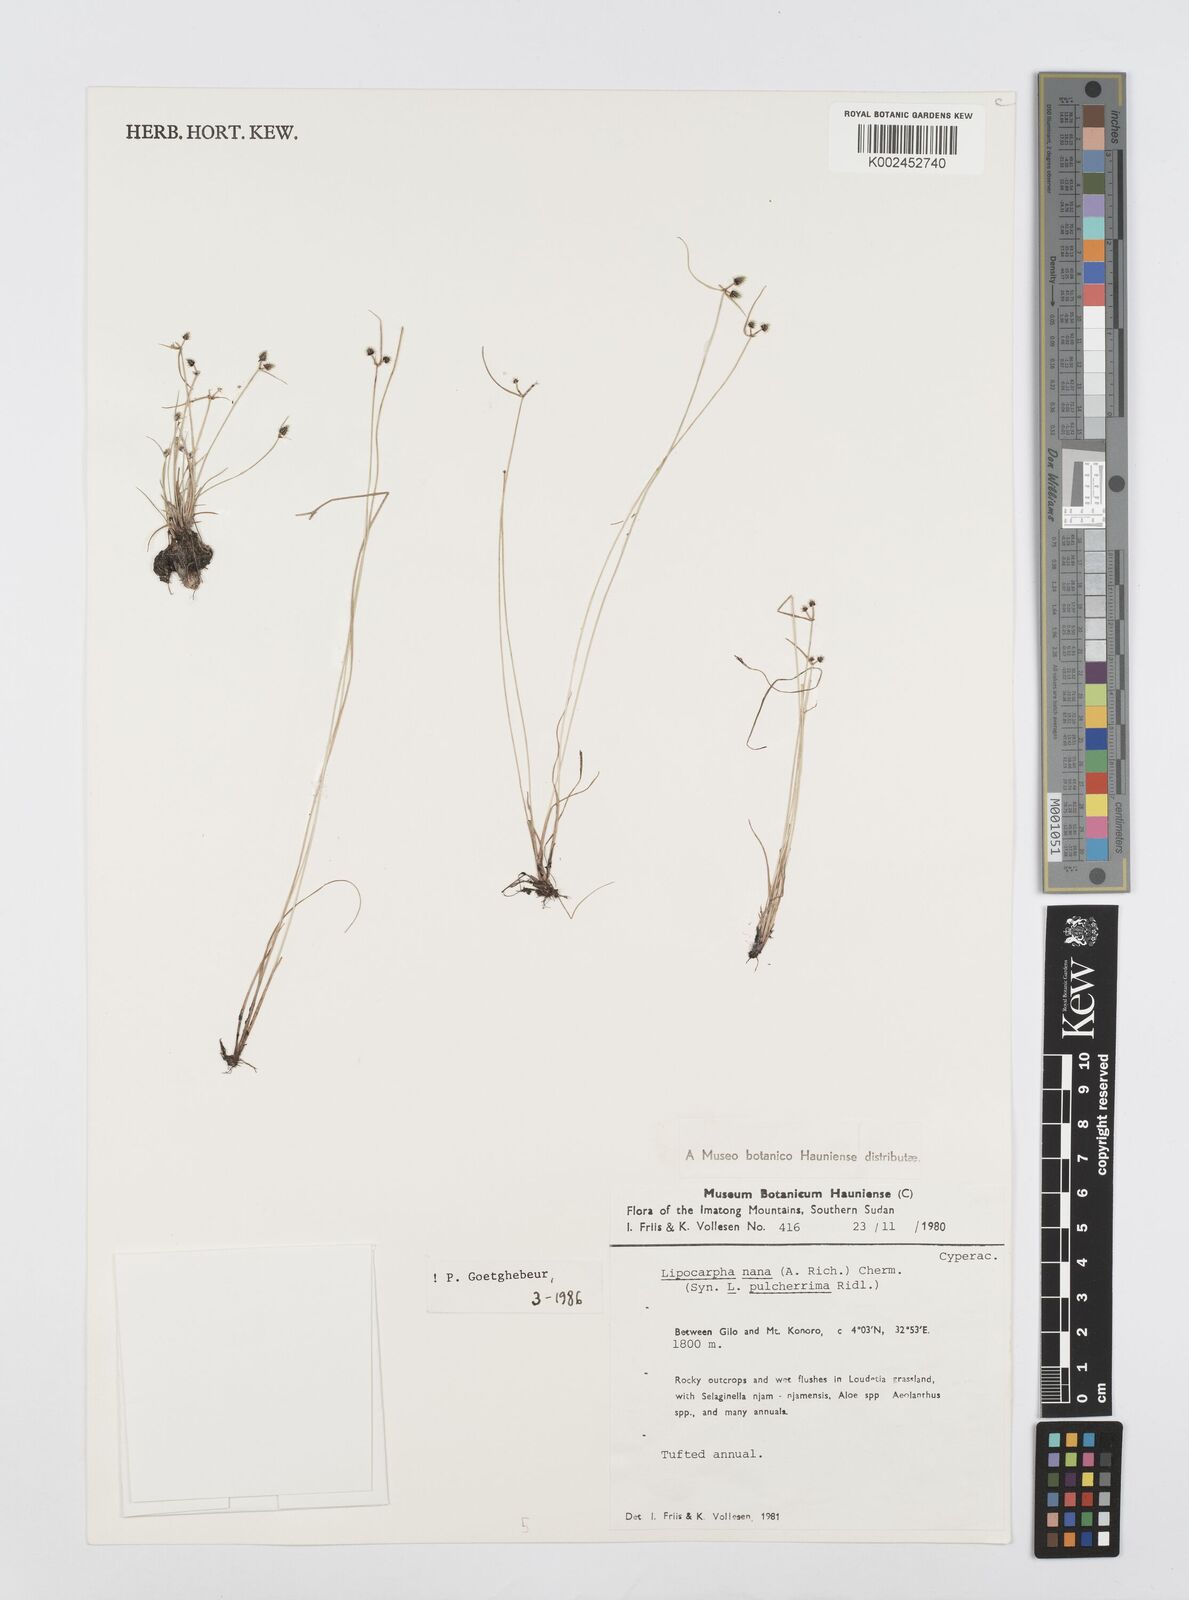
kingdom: Plantae
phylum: Tracheophyta
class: Liliopsida
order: Poales
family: Cyperaceae
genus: Cyperus
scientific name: Cyperus nanus
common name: Indian flatsedge
